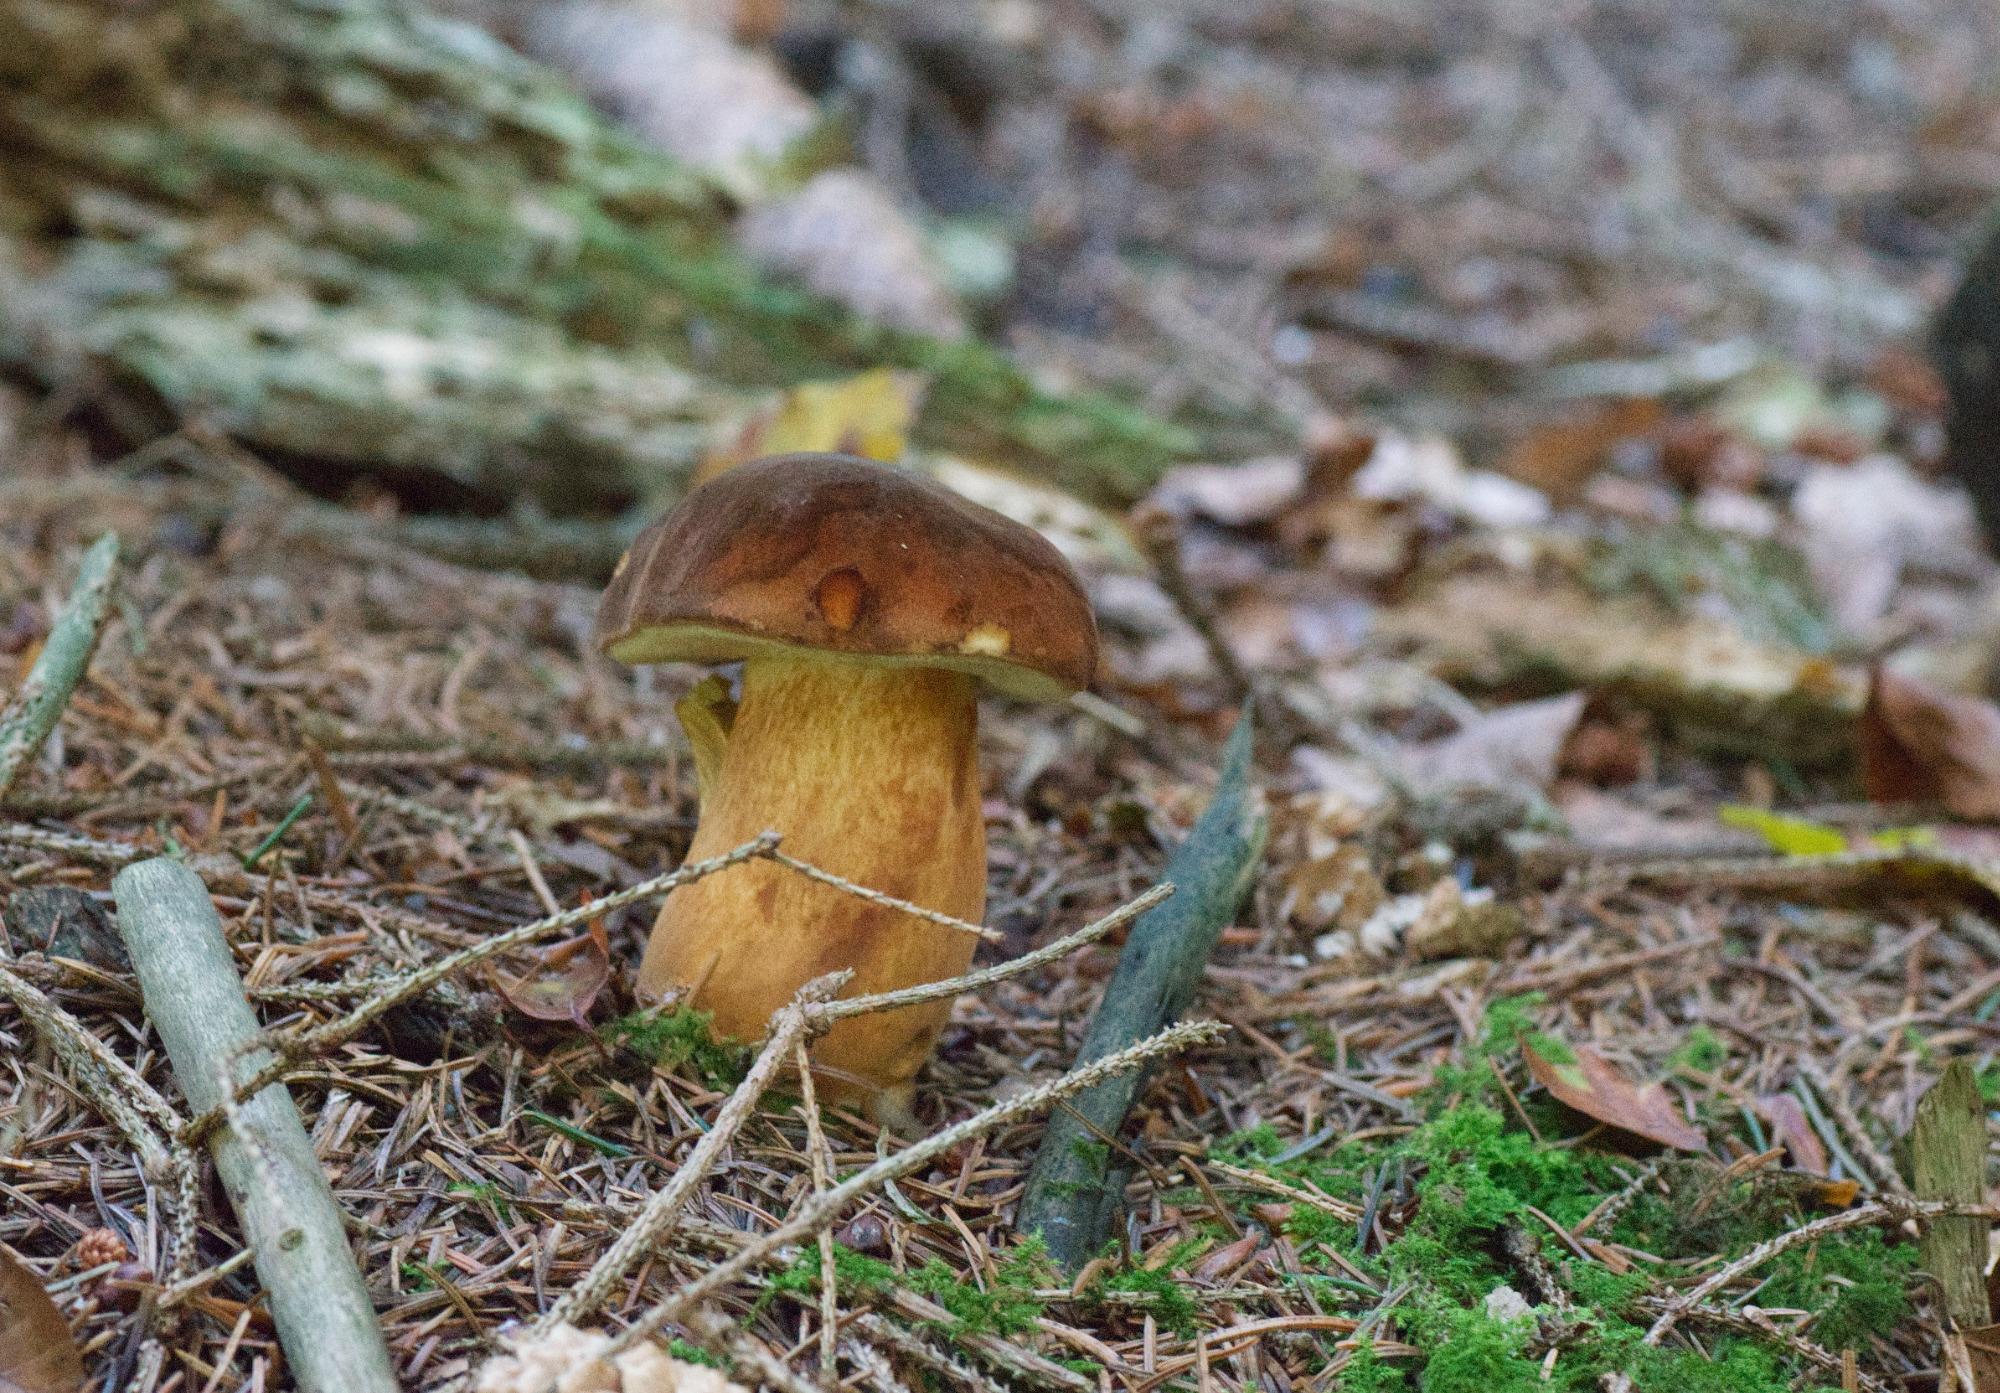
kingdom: Fungi
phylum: Basidiomycota
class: Agaricomycetes
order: Boletales
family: Boletaceae
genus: Imleria
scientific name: Imleria badia
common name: brunstokket rørhat
